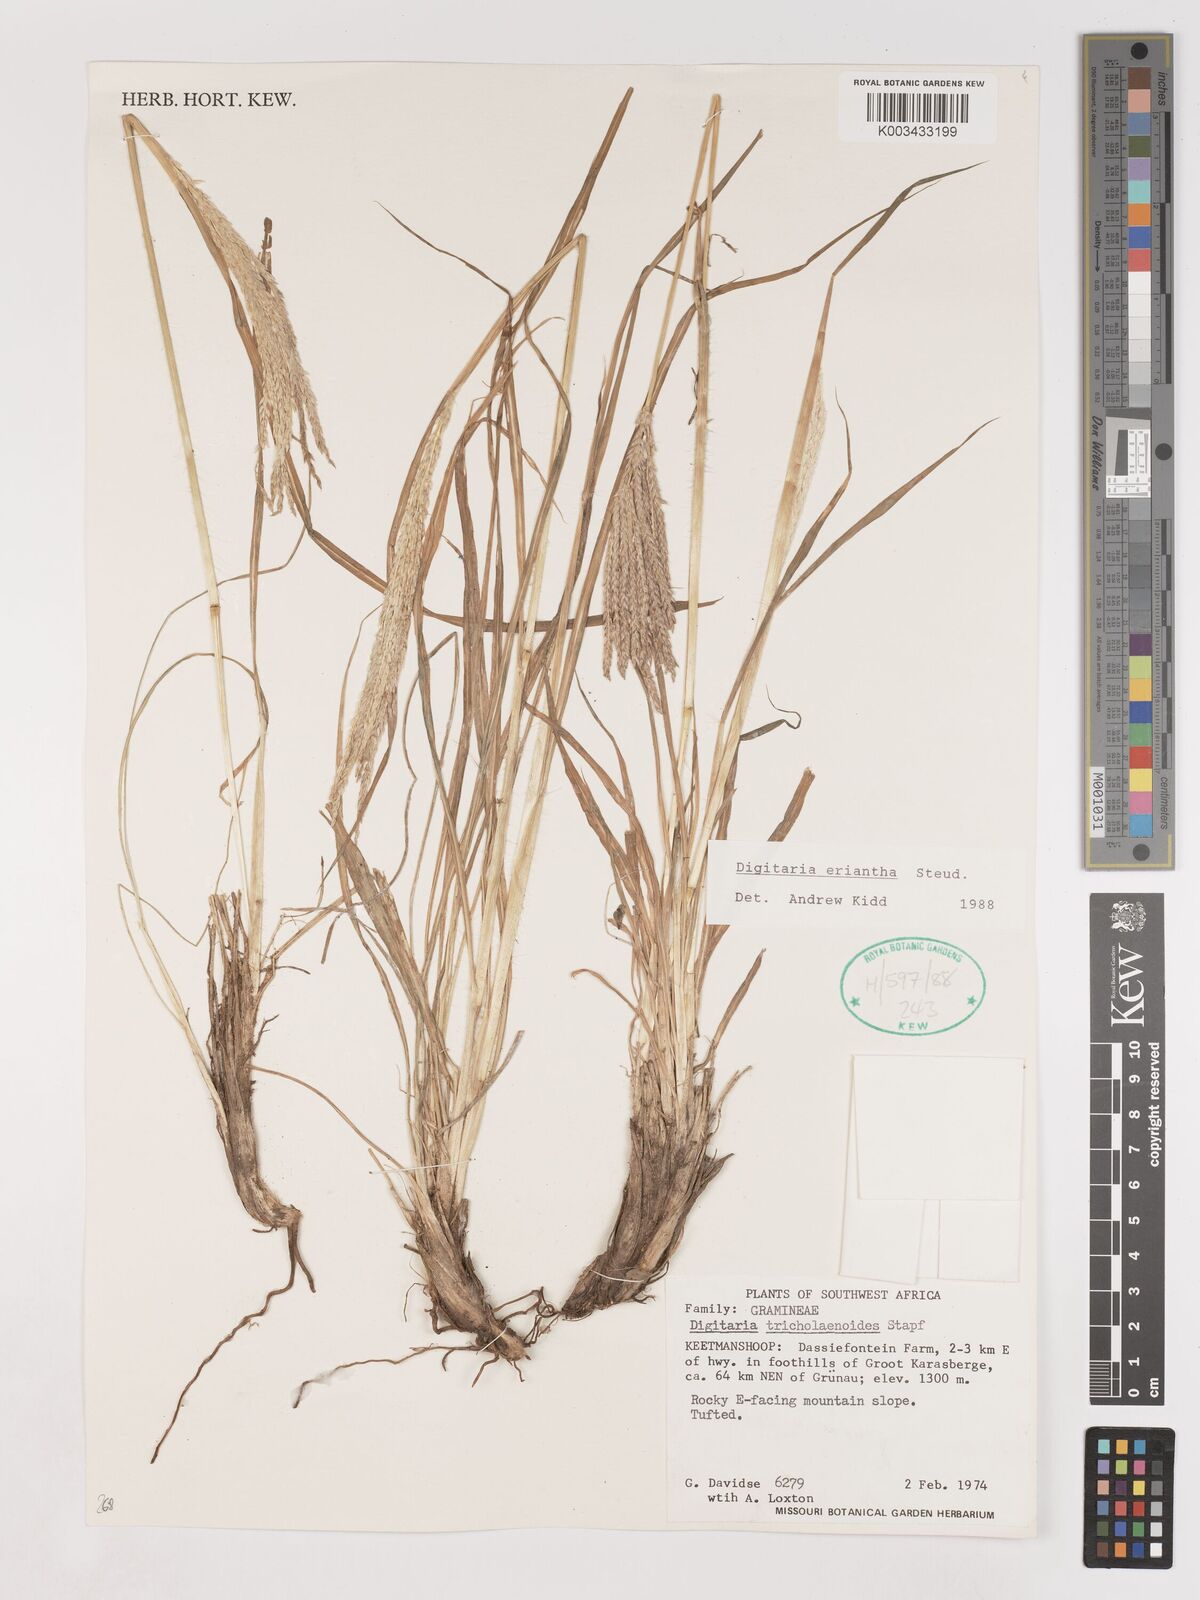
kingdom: Plantae
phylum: Tracheophyta
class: Liliopsida
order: Poales
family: Poaceae
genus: Digitaria
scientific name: Digitaria eriantha
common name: Digitgrass
